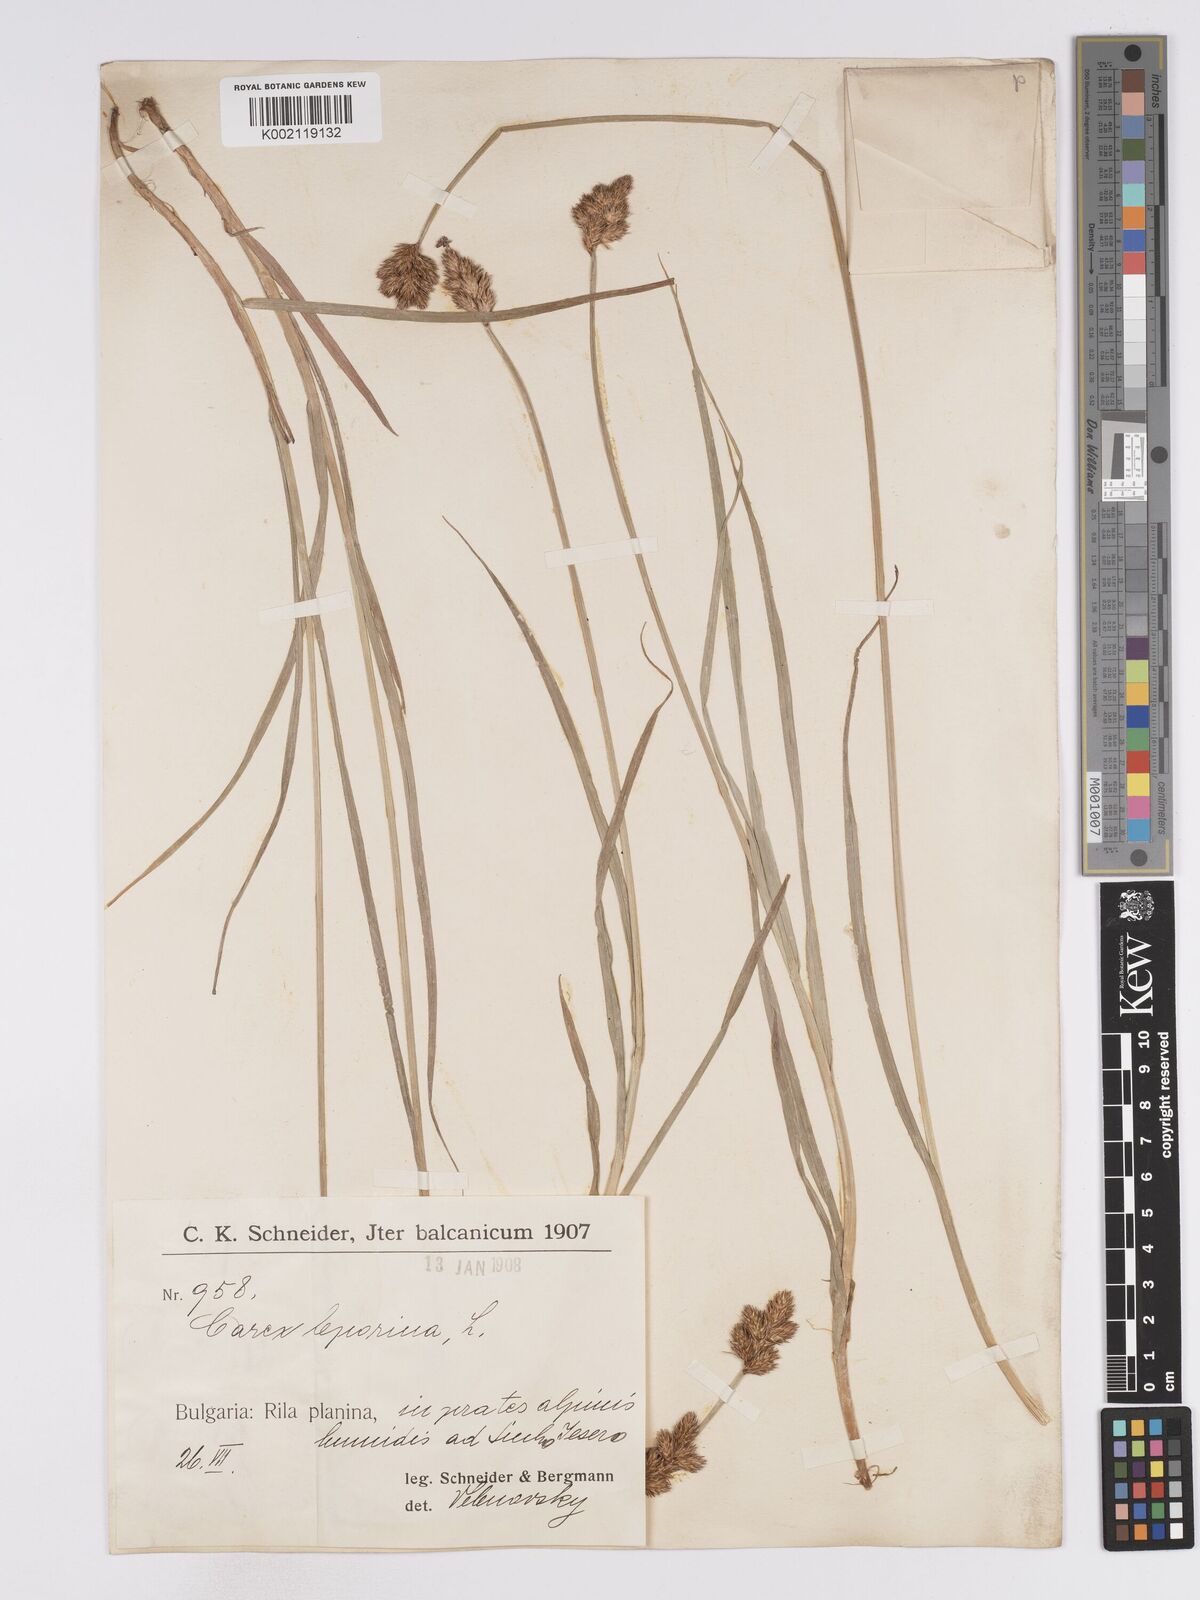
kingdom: Plantae
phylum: Tracheophyta
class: Liliopsida
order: Poales
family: Cyperaceae
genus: Carex
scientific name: Carex leporina
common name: Oval sedge
